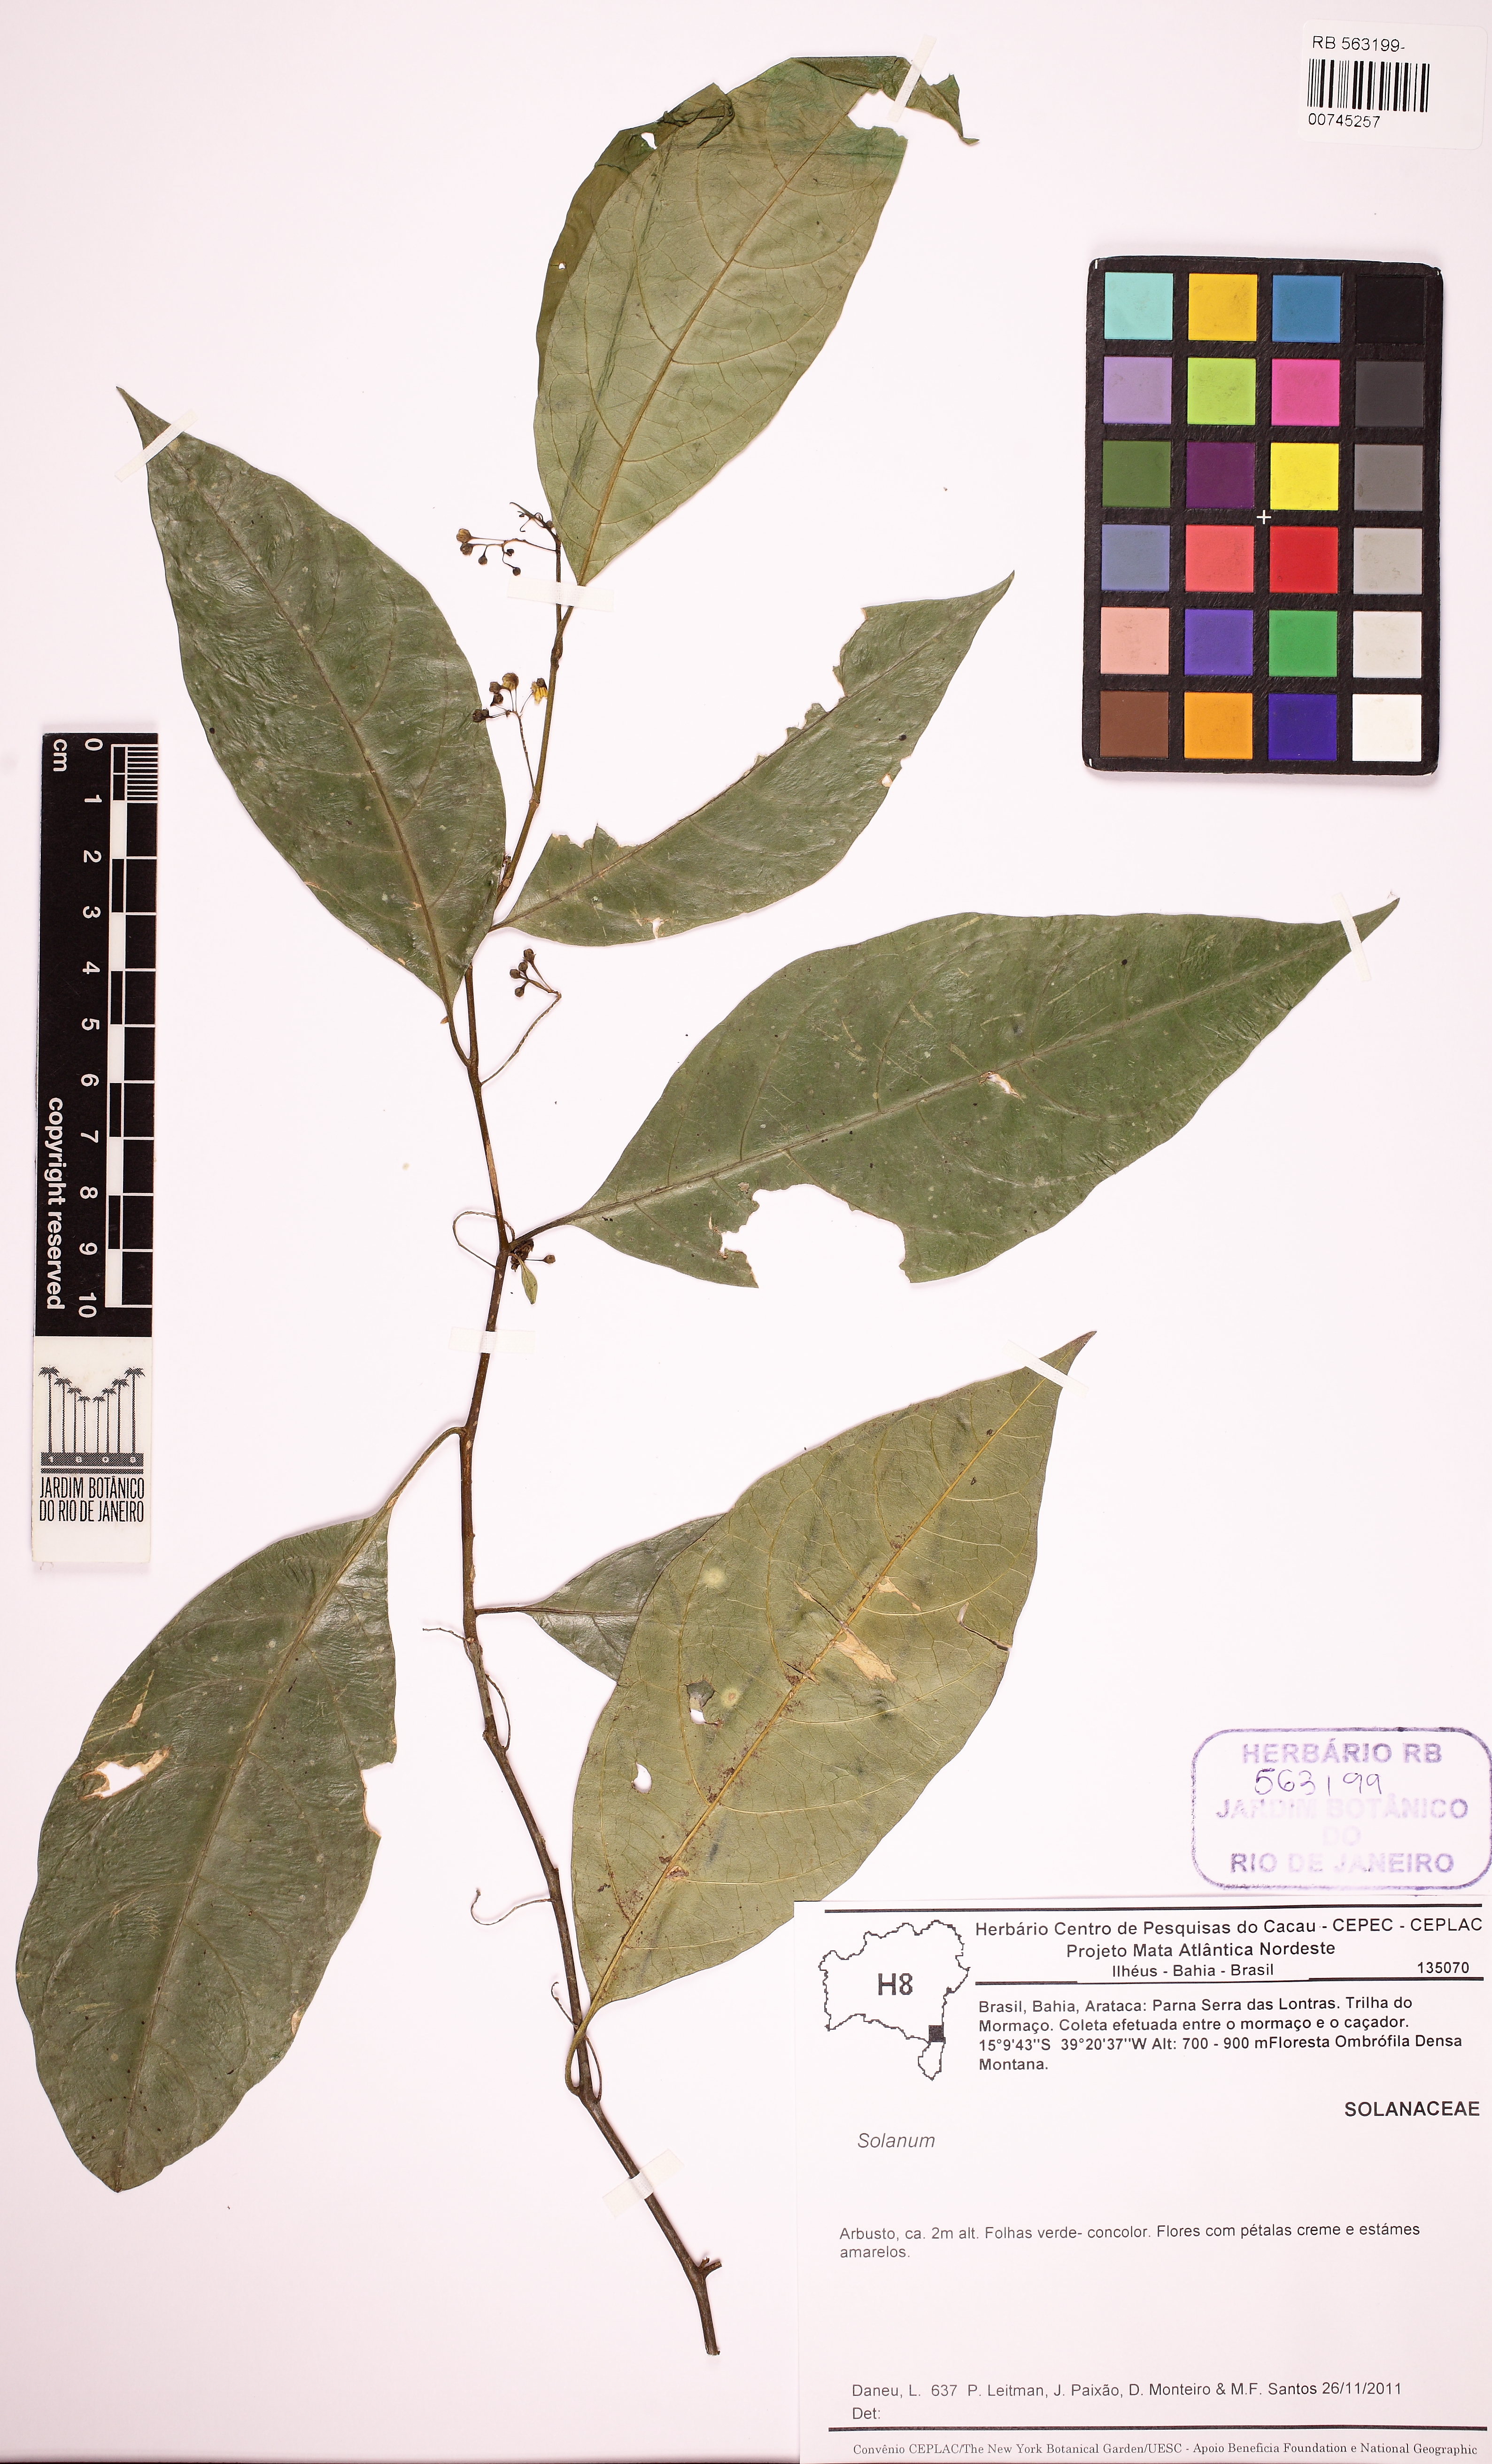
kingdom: Plantae
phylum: Tracheophyta
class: Magnoliopsida
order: Solanales
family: Solanaceae
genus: Solanum
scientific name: Solanum bahianum
